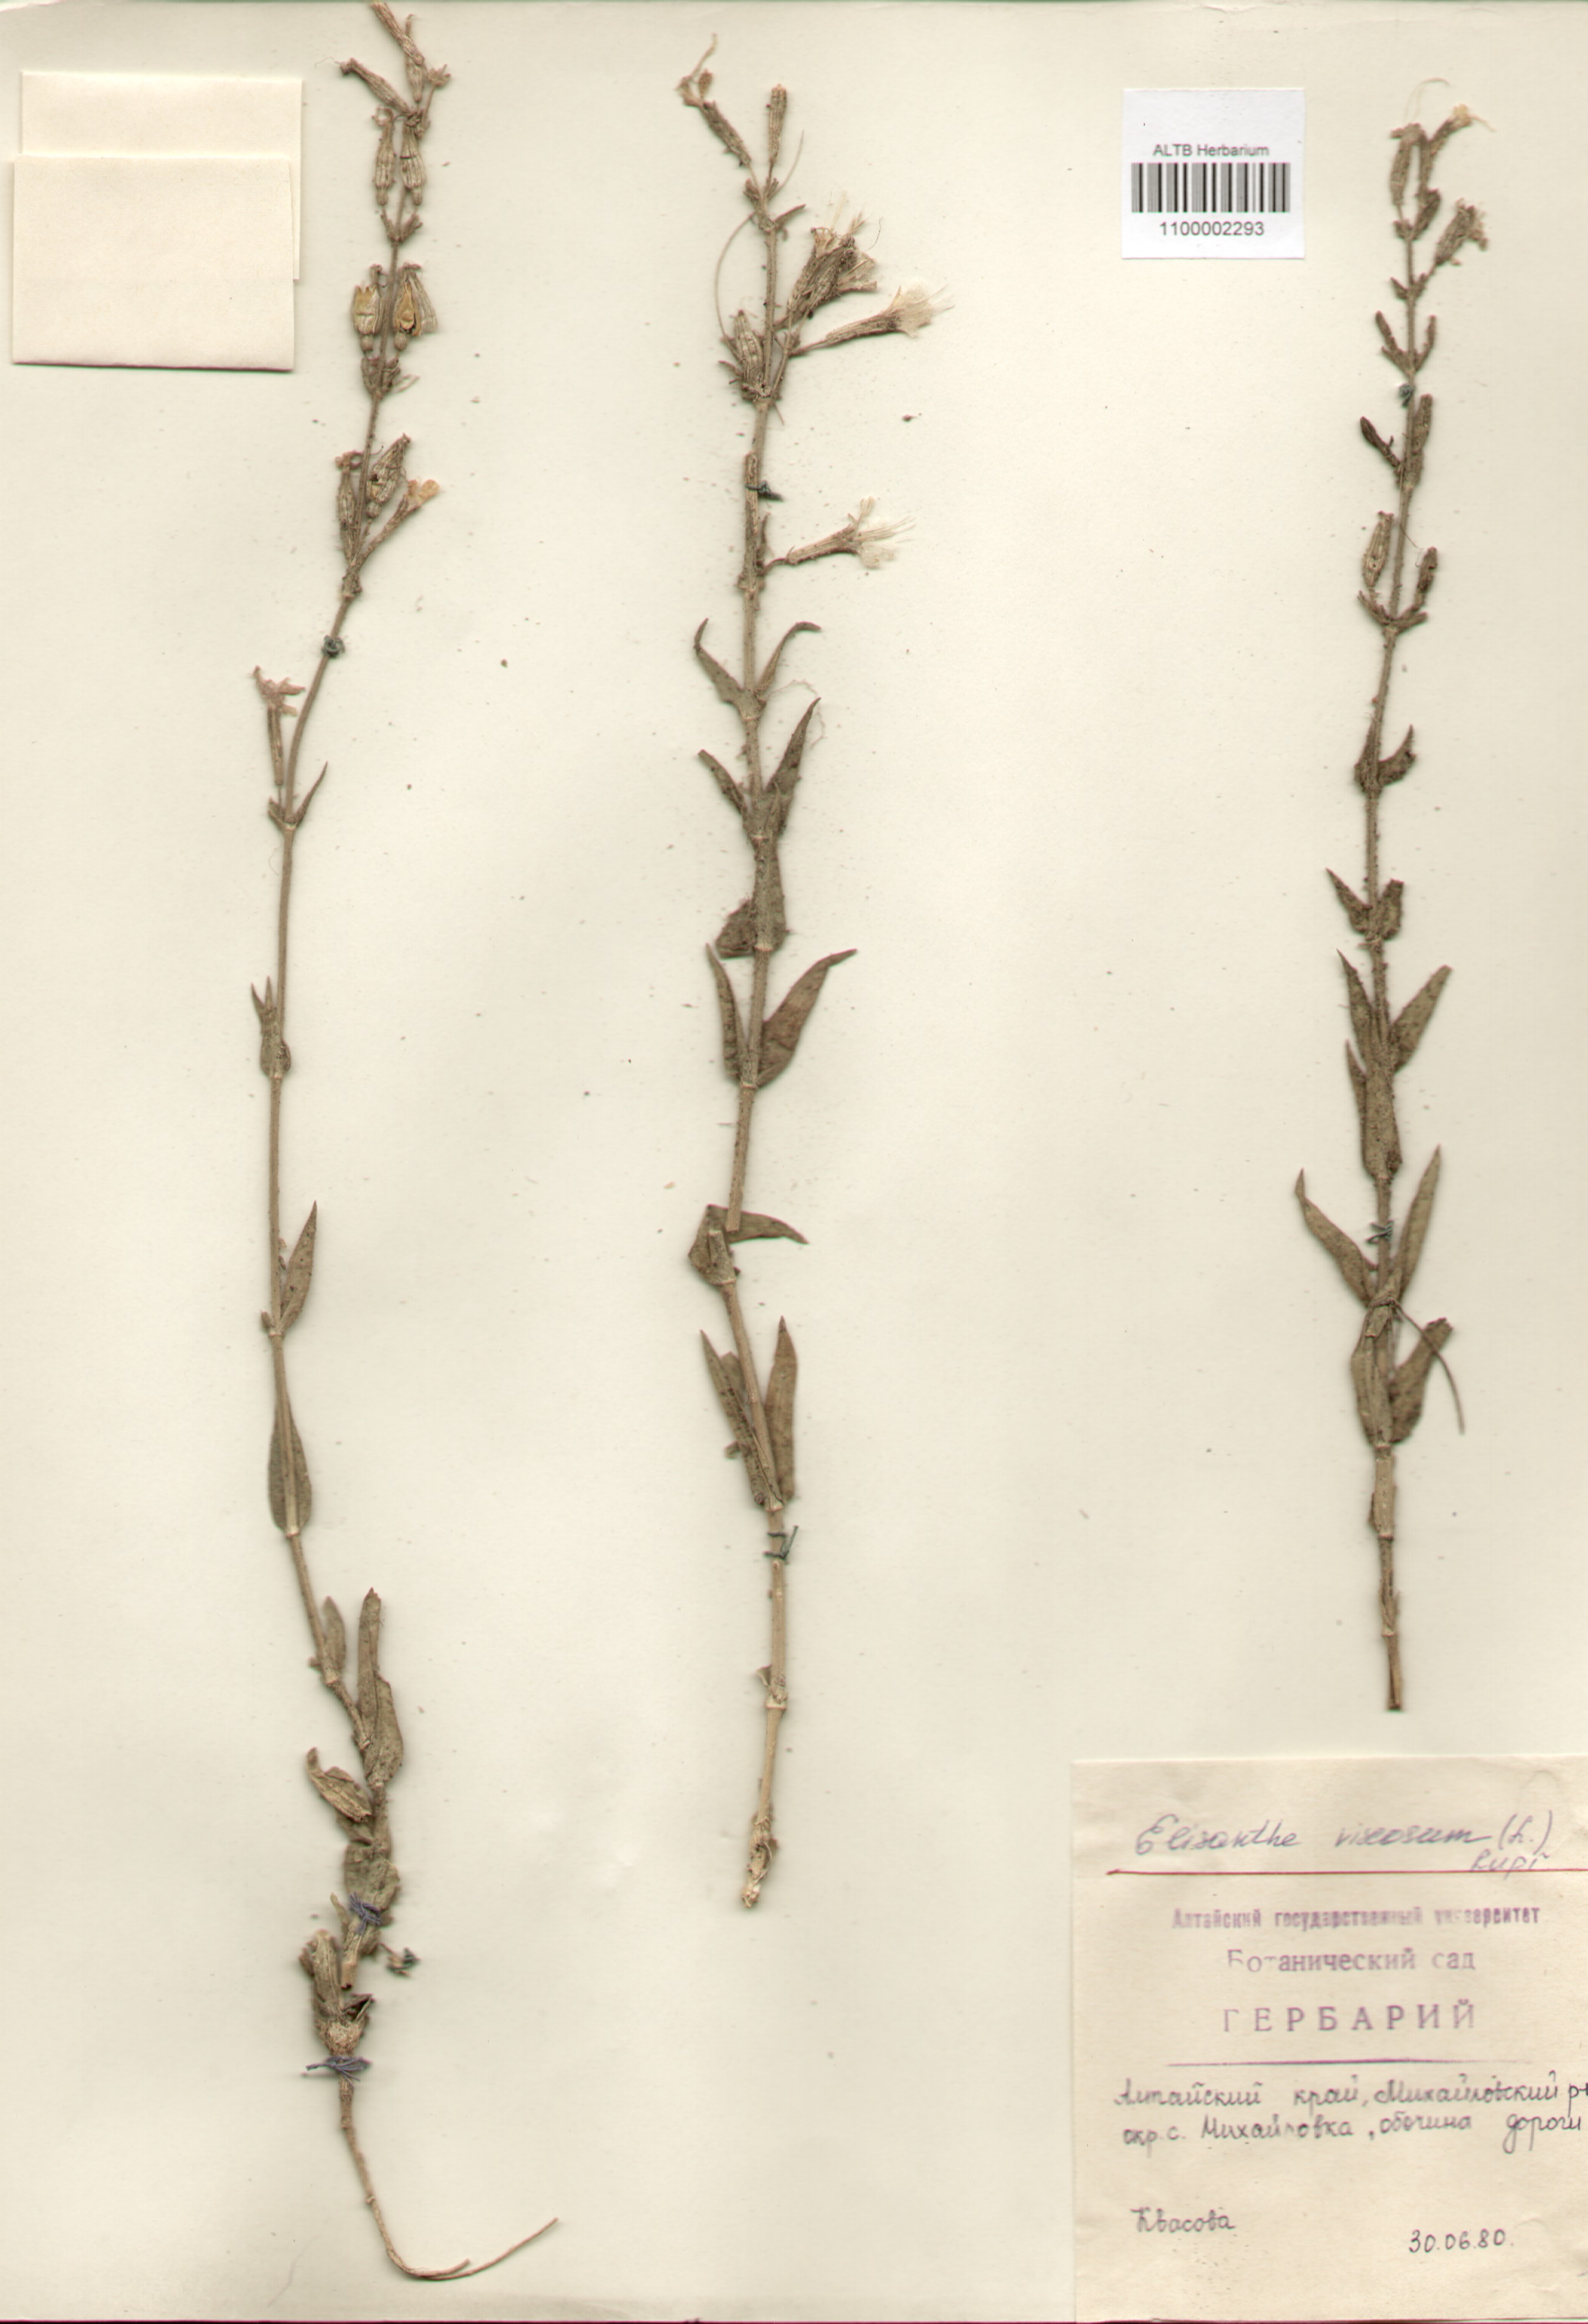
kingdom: Plantae
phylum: Tracheophyta
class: Magnoliopsida
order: Caryophyllales
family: Caryophyllaceae
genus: Silene
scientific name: Silene viscosa
